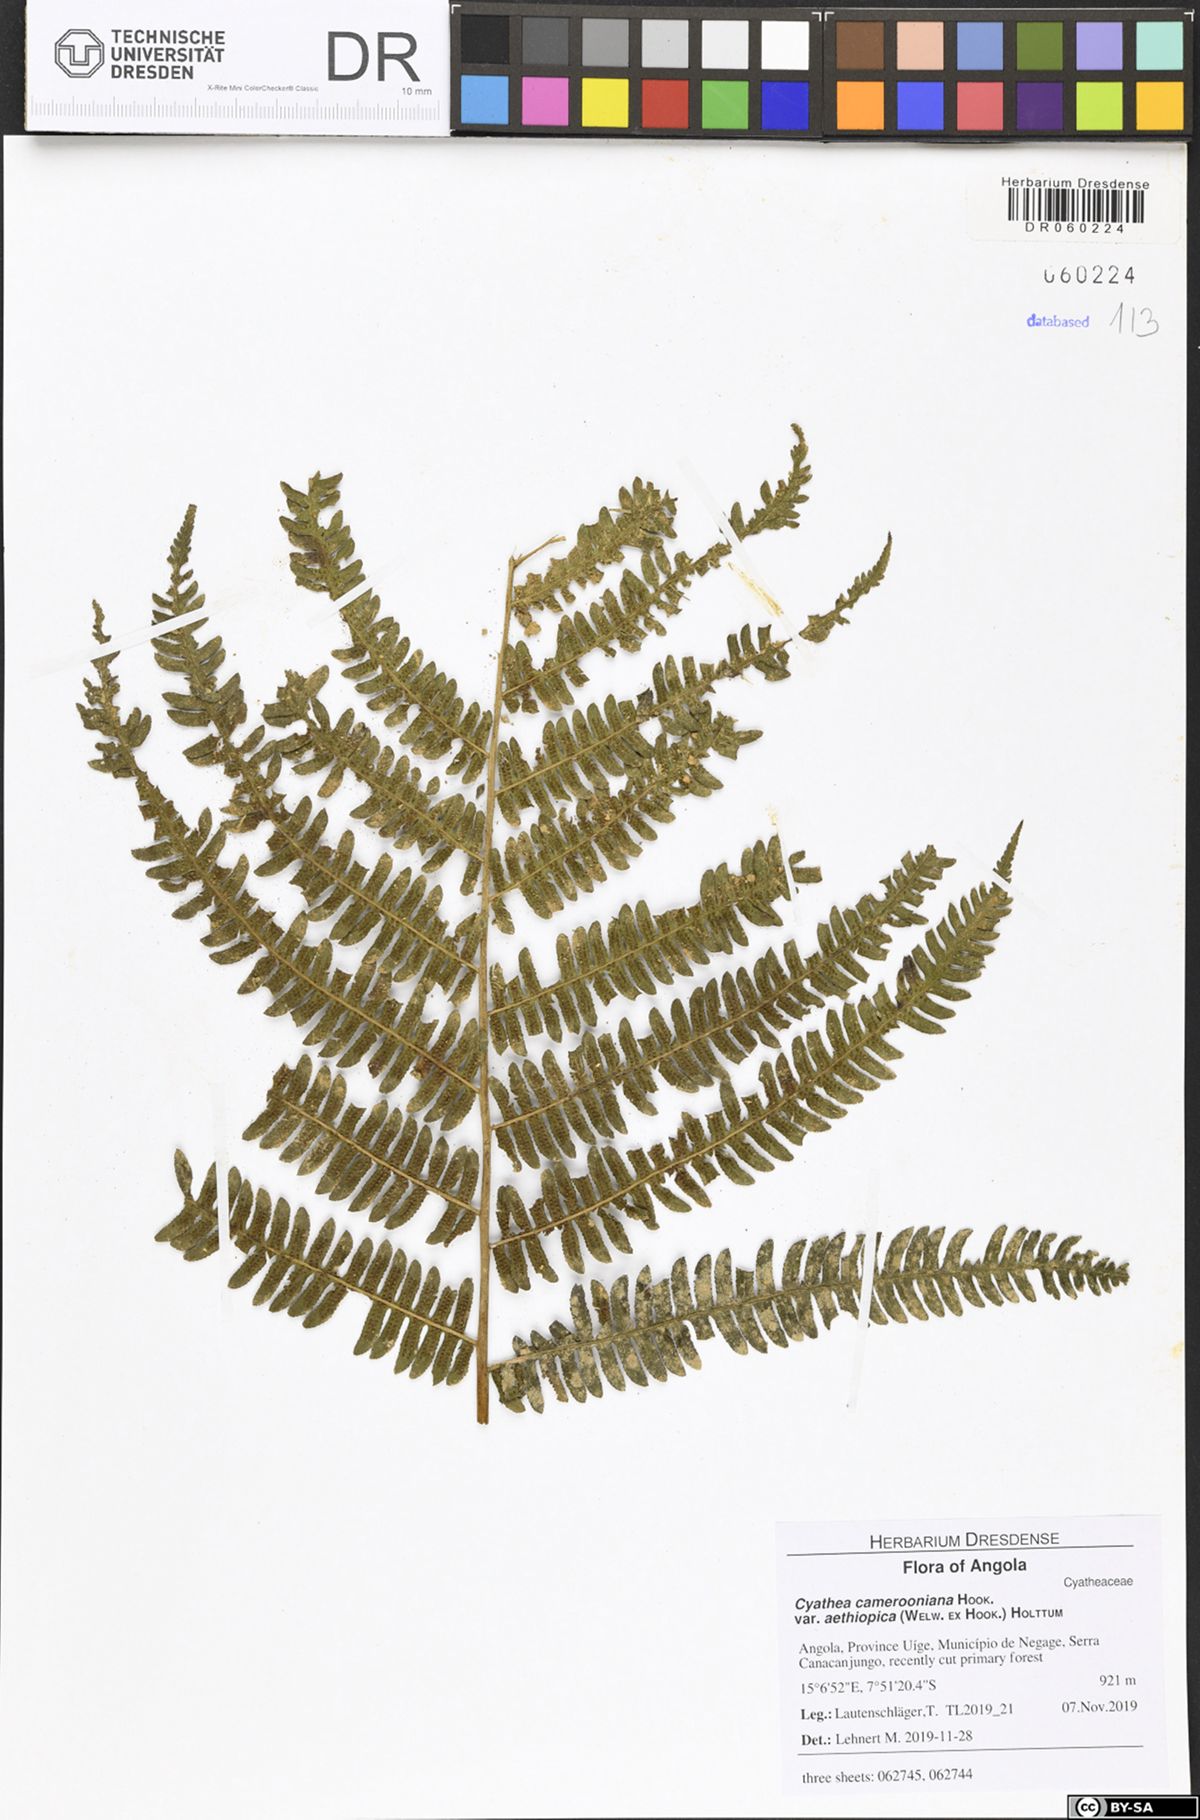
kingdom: Plantae
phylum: Tracheophyta
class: Polypodiopsida
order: Cyatheales
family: Cyatheaceae
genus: Alsophila
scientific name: Alsophila camerooniana
